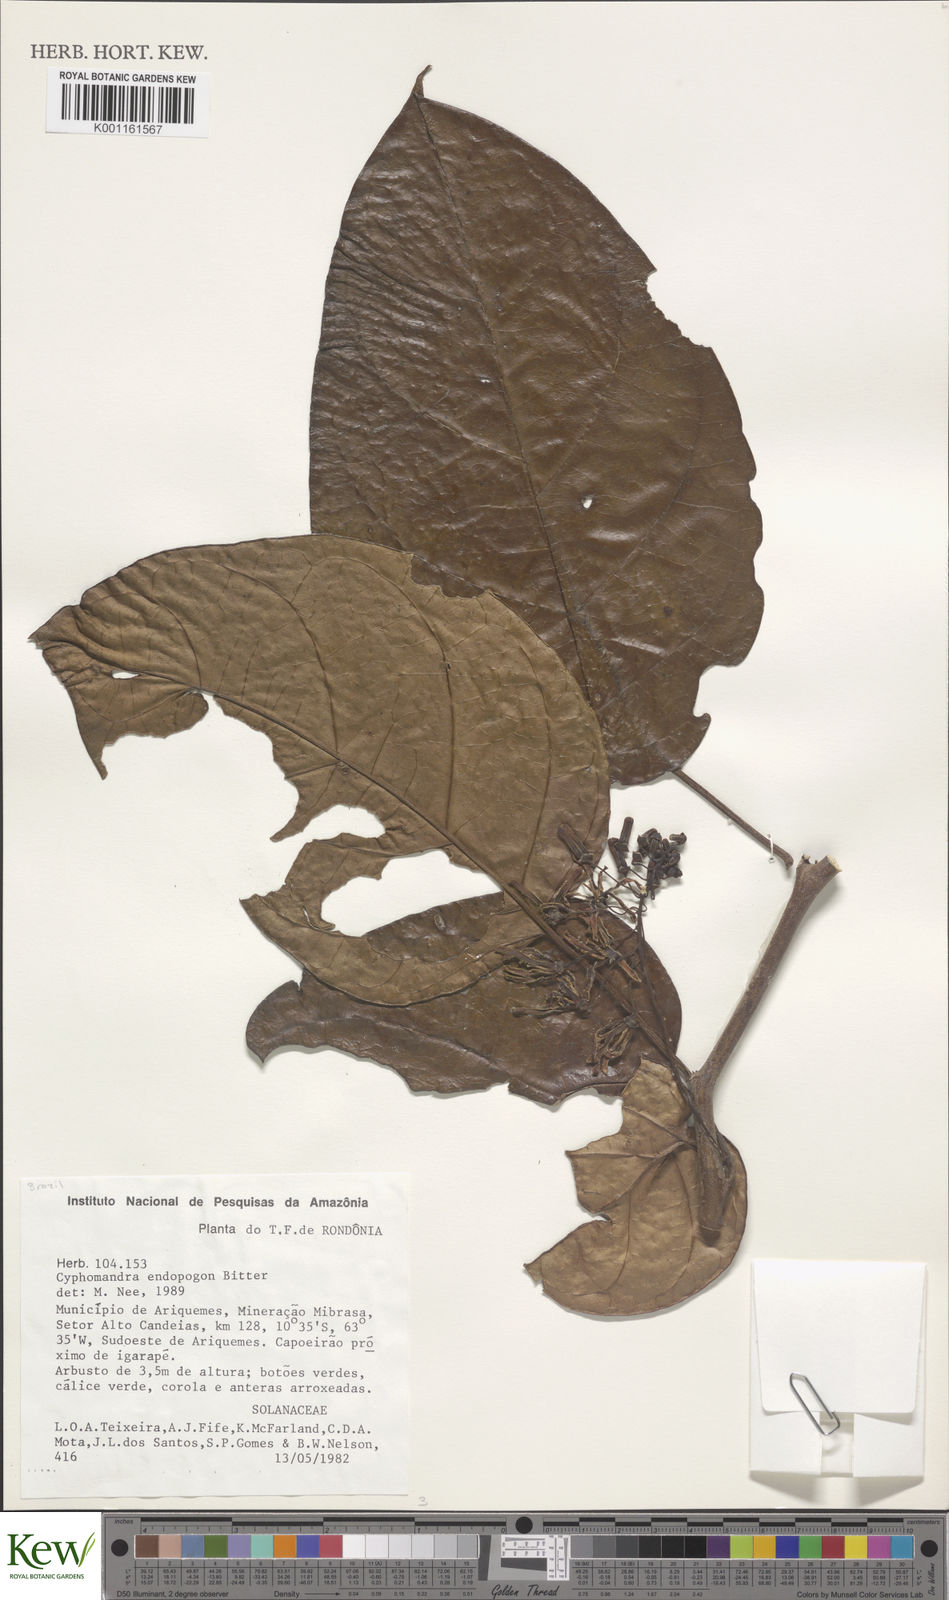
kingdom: Plantae
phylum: Tracheophyta
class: Magnoliopsida
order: Solanales
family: Solanaceae
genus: Solanum
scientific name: Solanum endopogon
